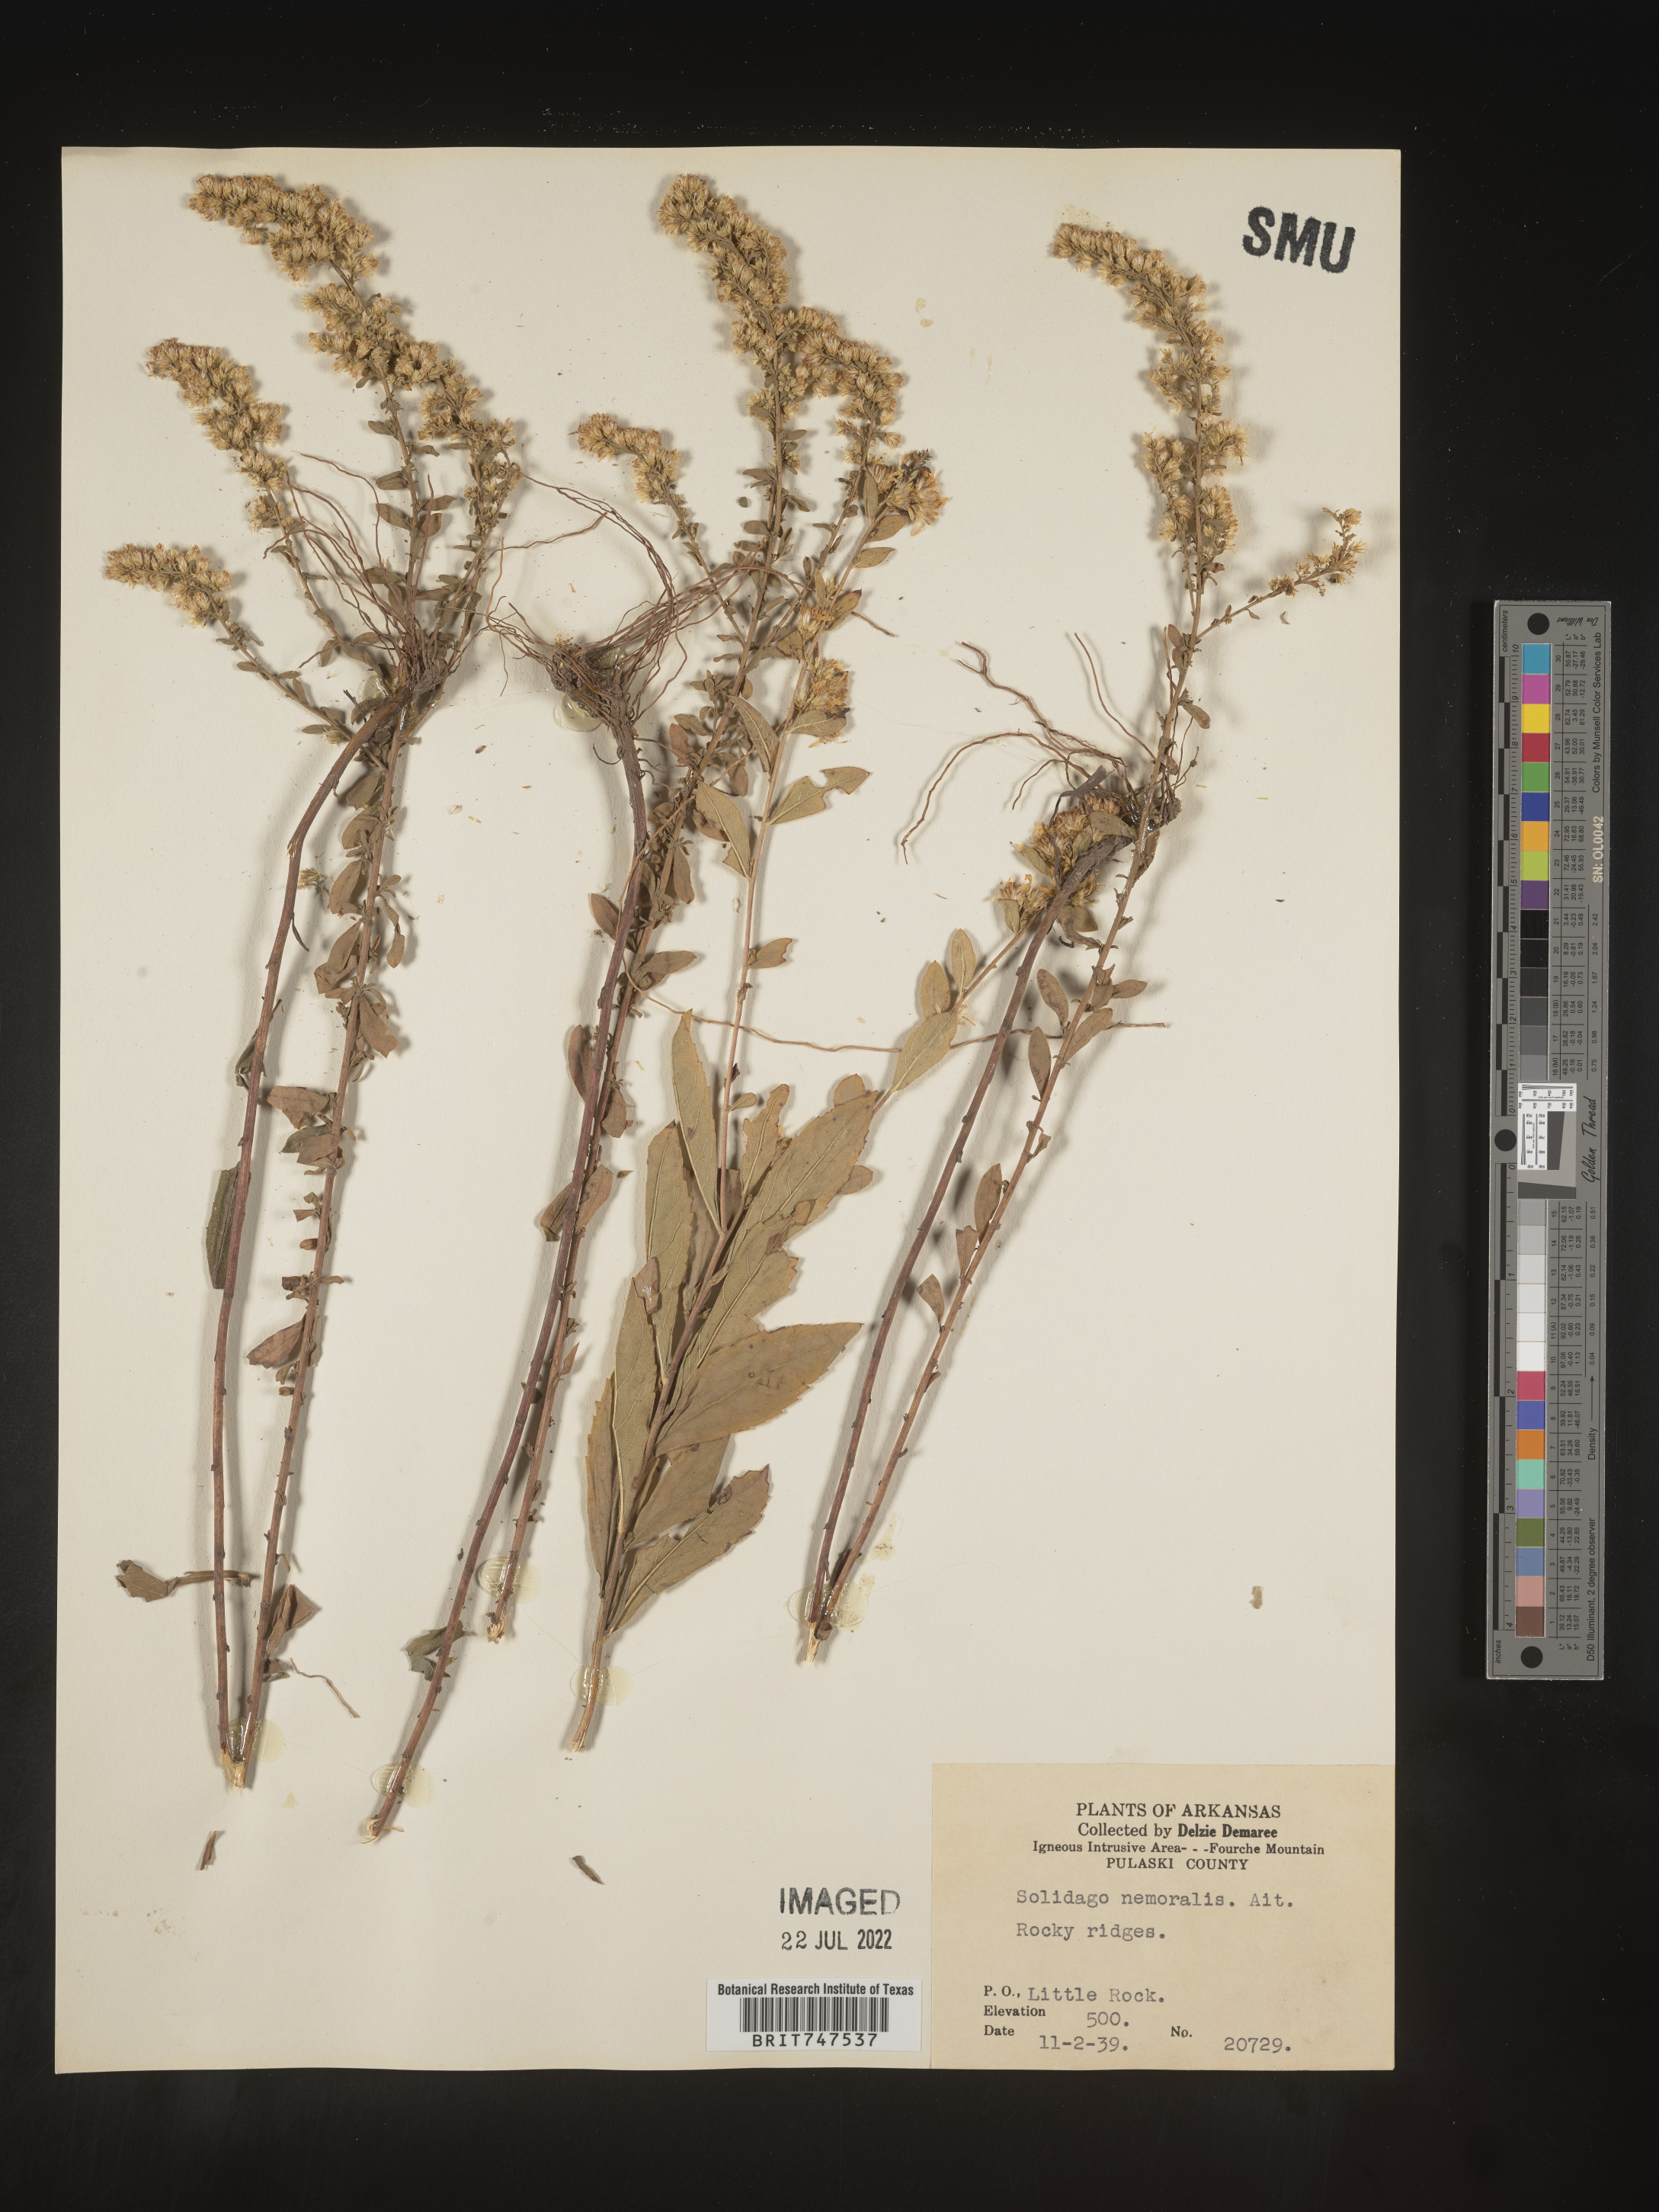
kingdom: Plantae
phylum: Tracheophyta
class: Magnoliopsida
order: Asterales
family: Asteraceae
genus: Solidago
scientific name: Solidago nemoralis
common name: Grey goldenrod
